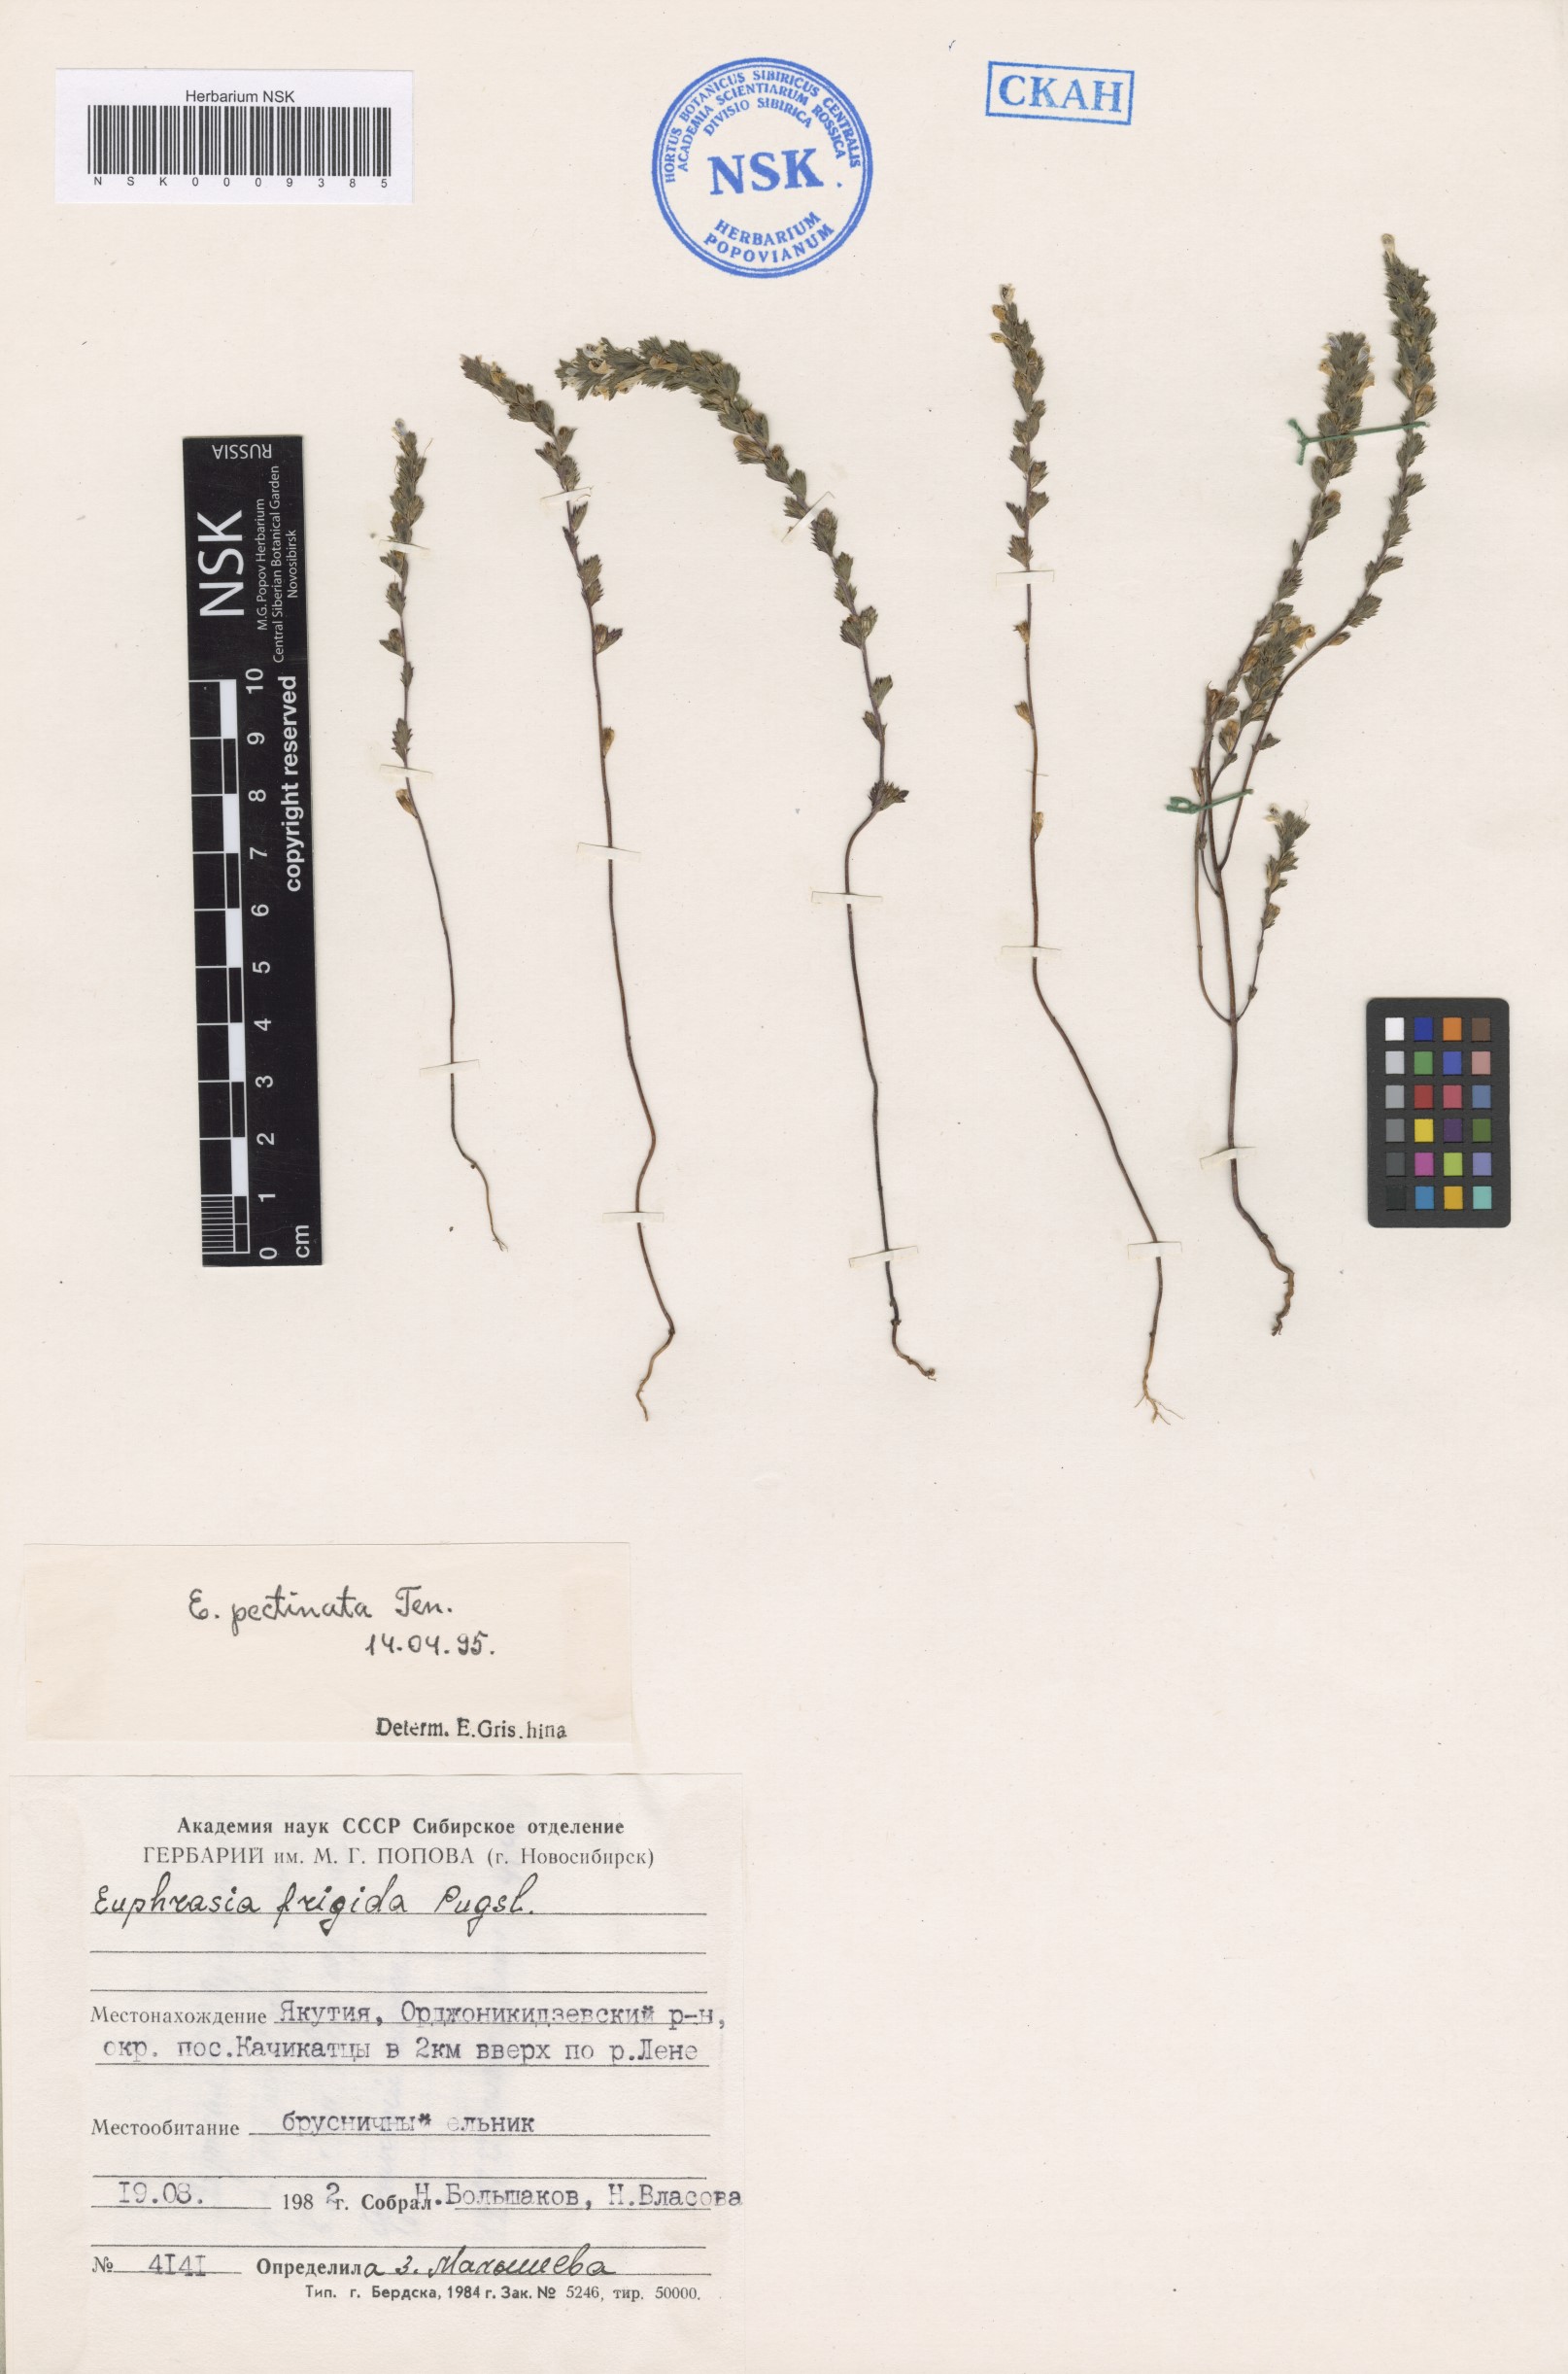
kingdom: Plantae
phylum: Tracheophyta
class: Magnoliopsida
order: Lamiales
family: Orobanchaceae
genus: Euphrasia
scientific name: Euphrasia pectinata
